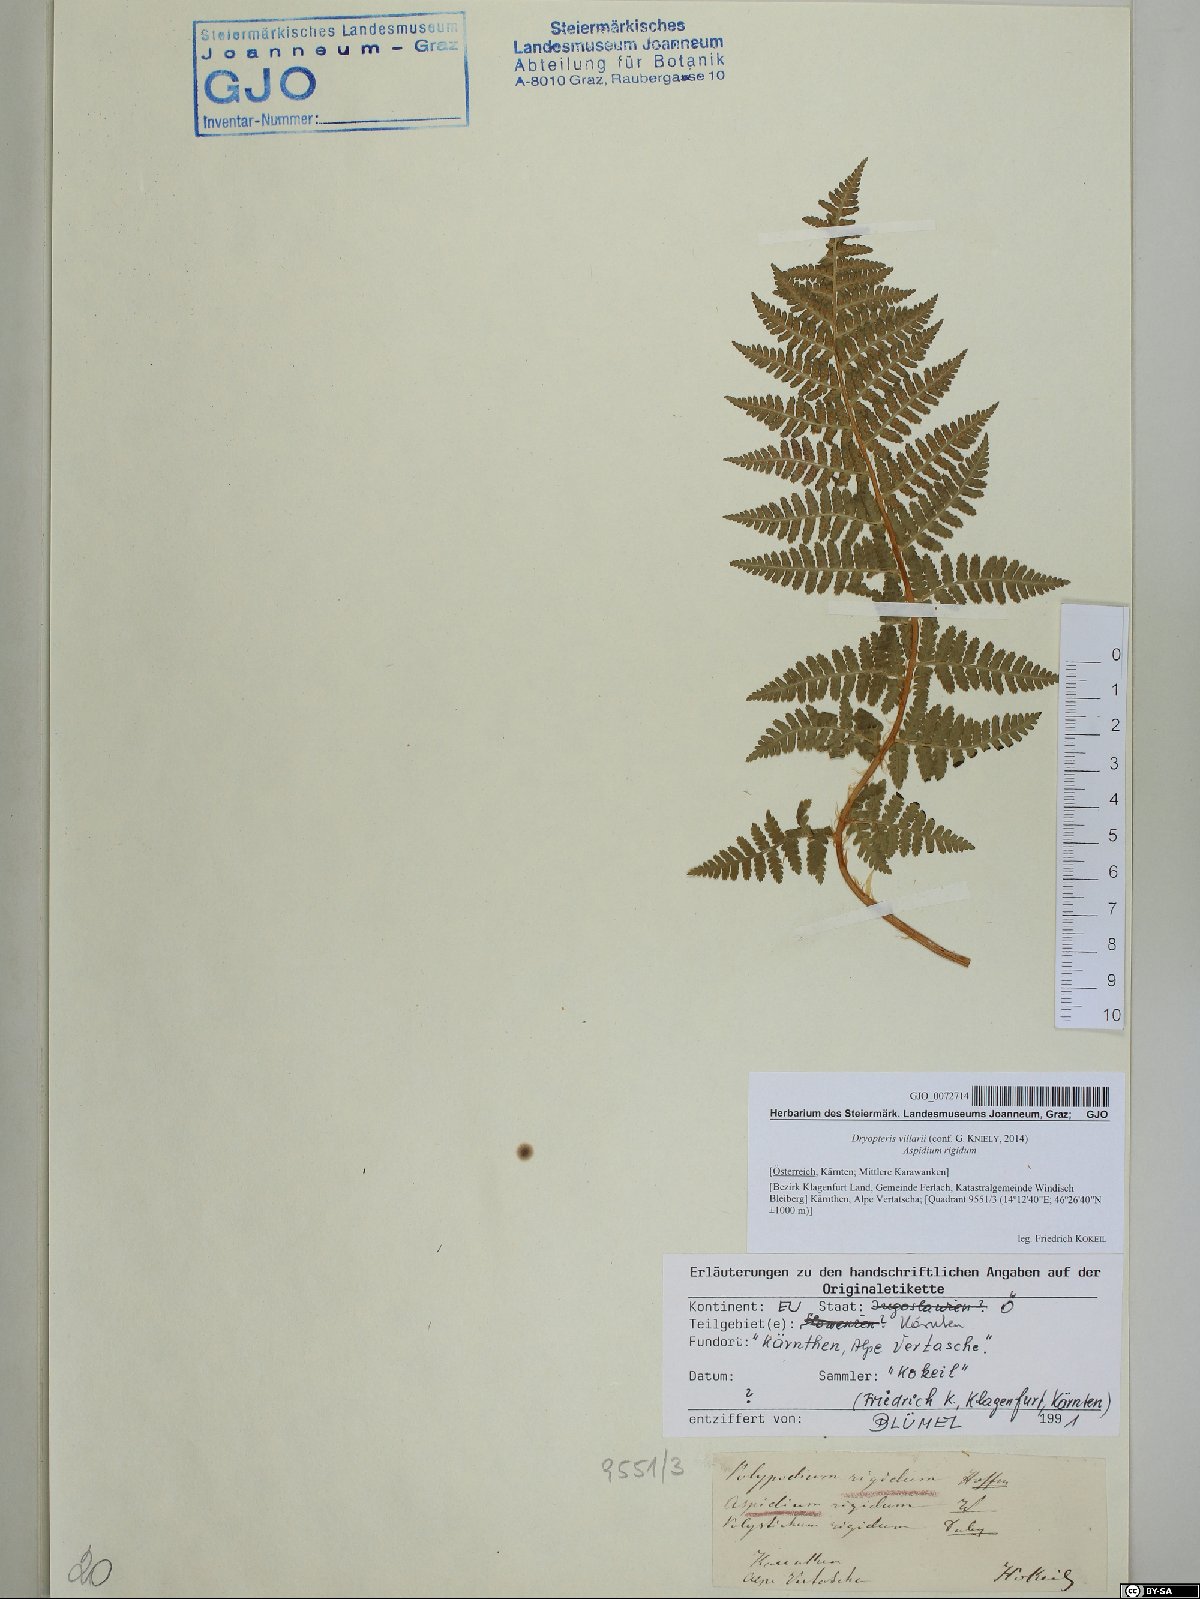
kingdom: Plantae
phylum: Tracheophyta
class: Polypodiopsida
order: Polypodiales
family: Dryopteridaceae
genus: Dryopteris
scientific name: Dryopteris villarii
